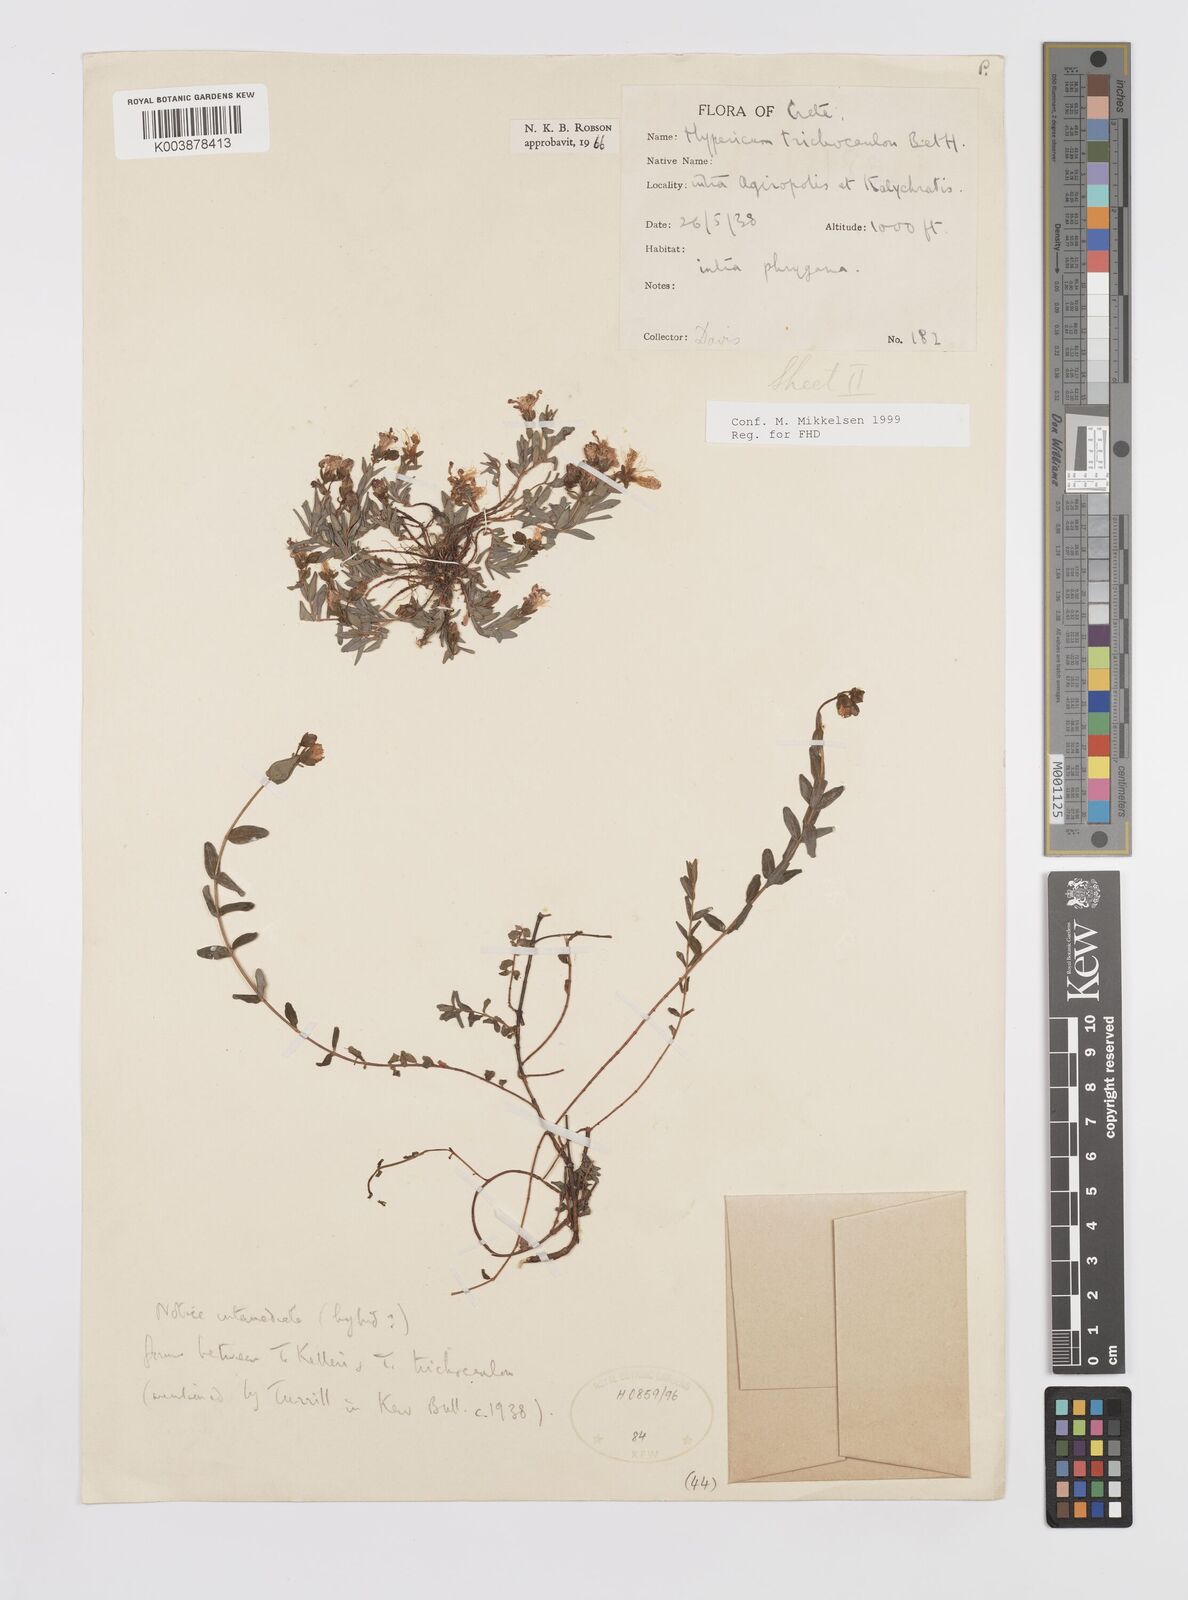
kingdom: Plantae
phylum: Tracheophyta
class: Magnoliopsida
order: Malpighiales
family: Hypericaceae
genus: Hypericum
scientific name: Hypericum trichocaulon
